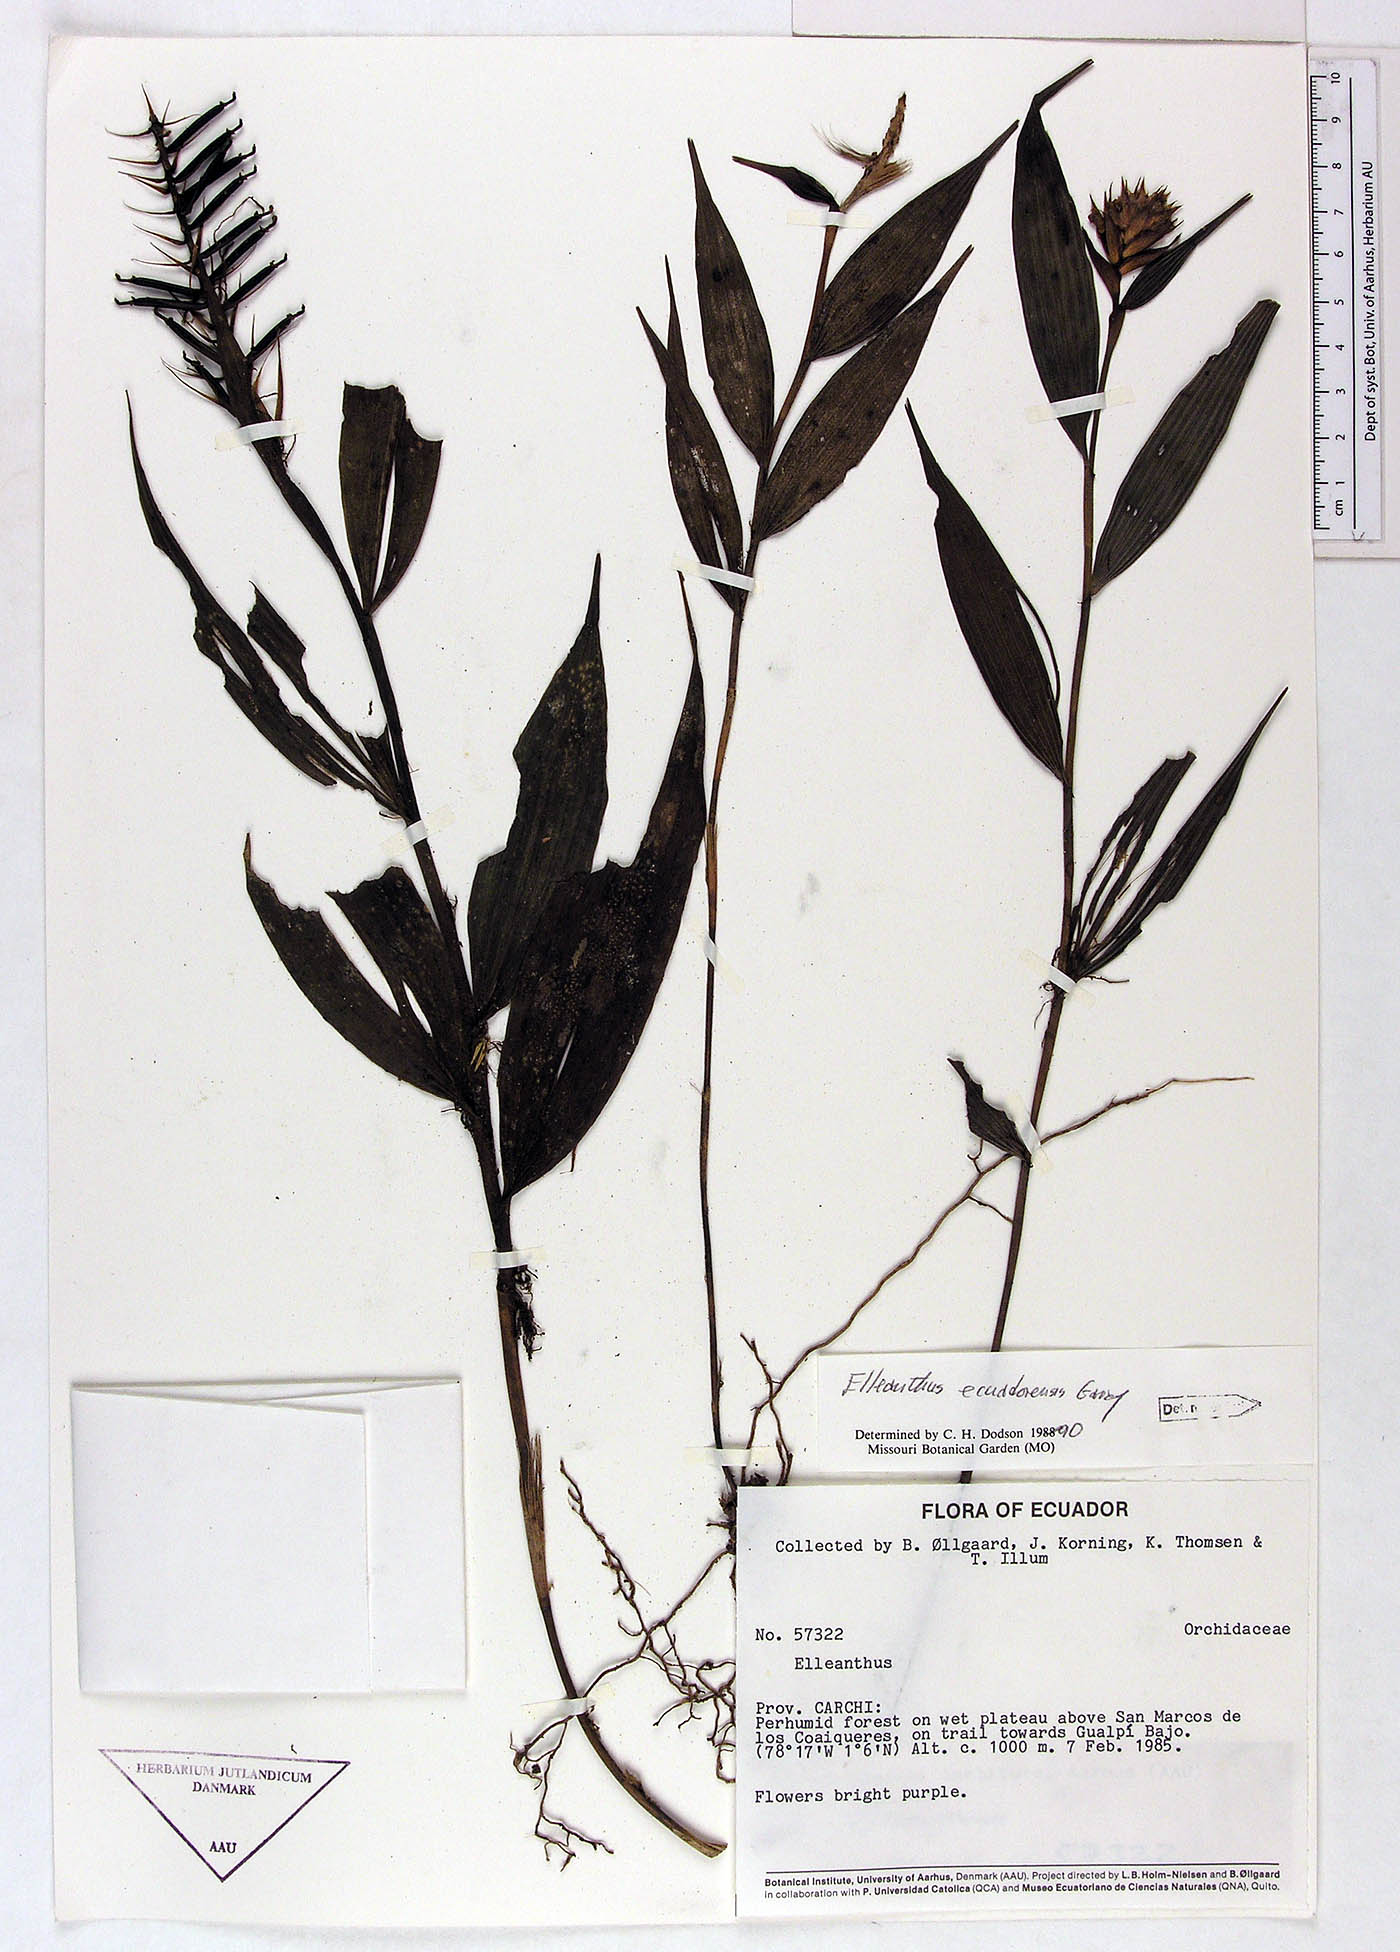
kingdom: Plantae
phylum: Tracheophyta
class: Liliopsida
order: Asparagales
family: Orchidaceae
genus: Elleanthus
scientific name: Elleanthus ecuadorensis
